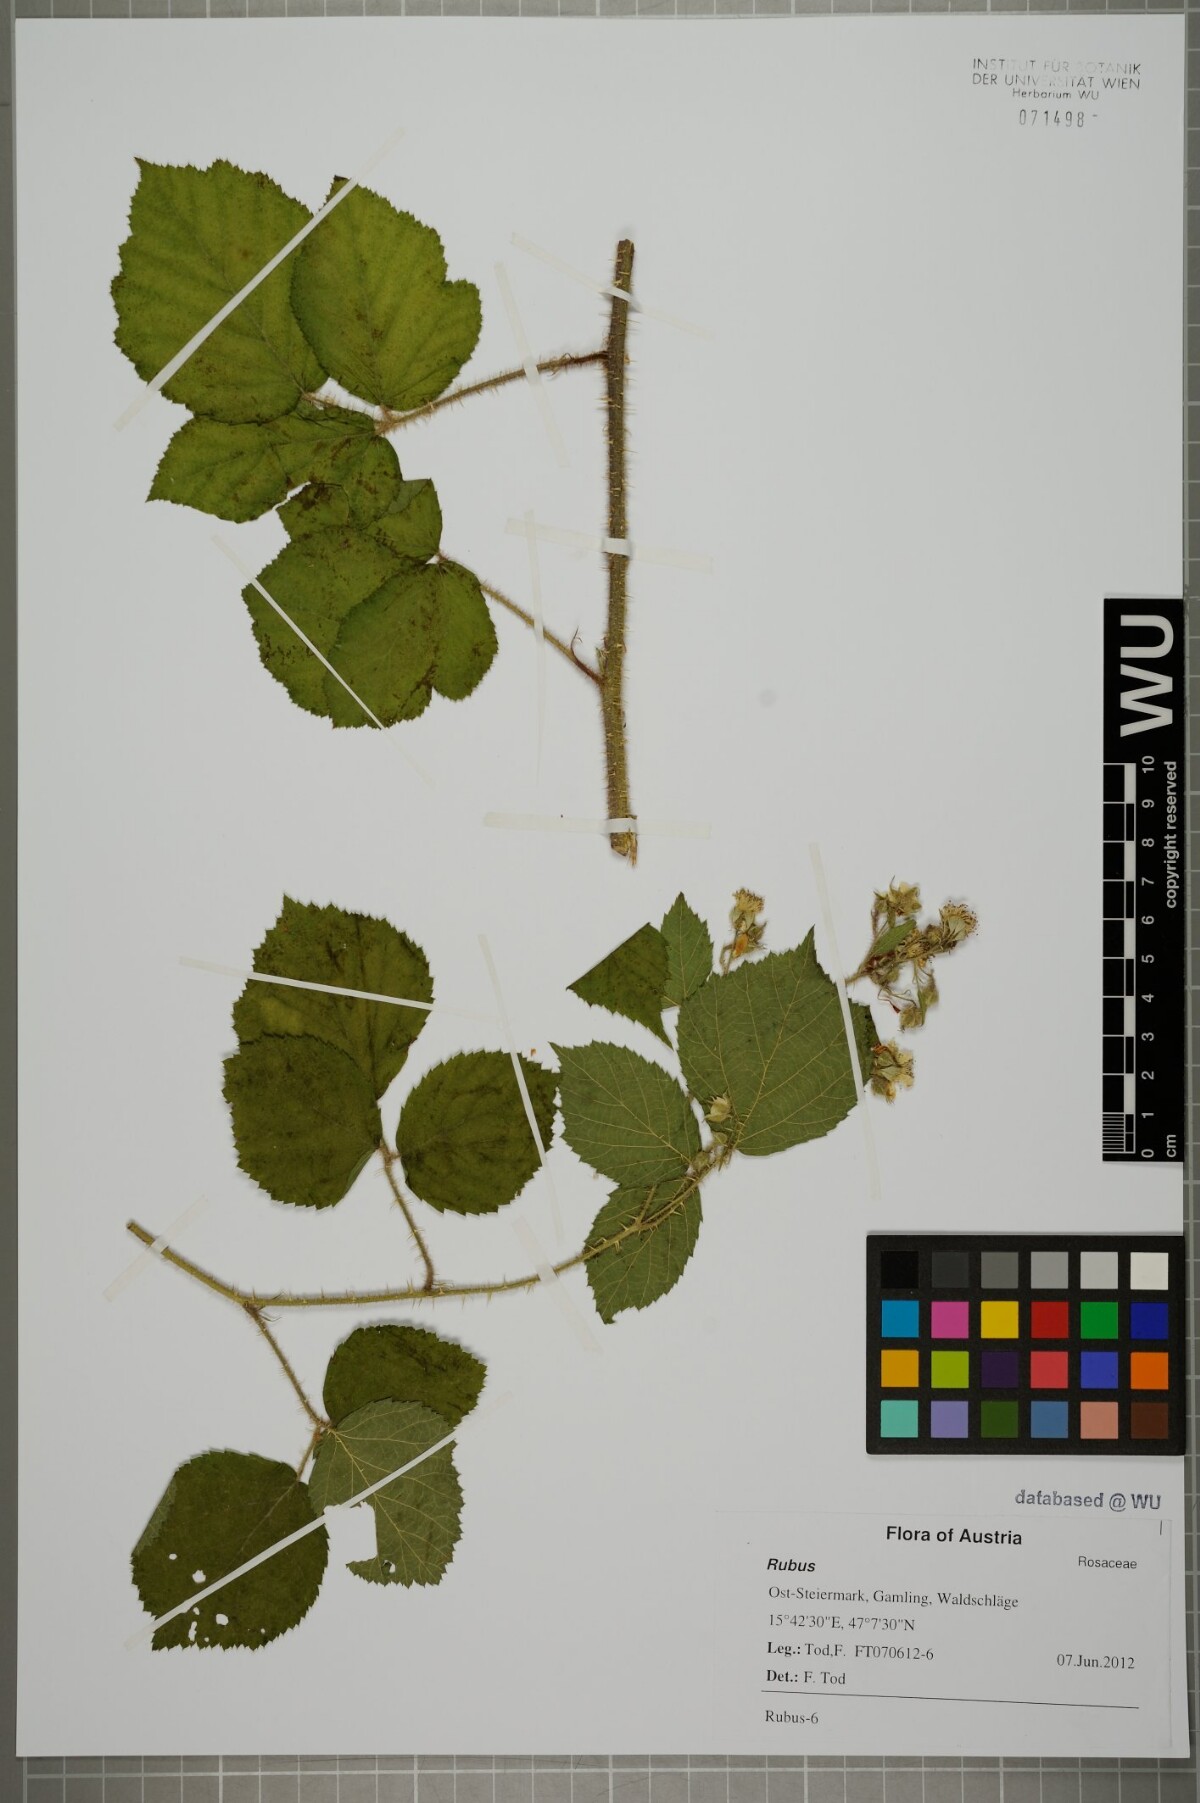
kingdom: Plantae
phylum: Tracheophyta
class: Magnoliopsida
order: Rosales
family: Rosaceae
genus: Rubus
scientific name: Rubus
